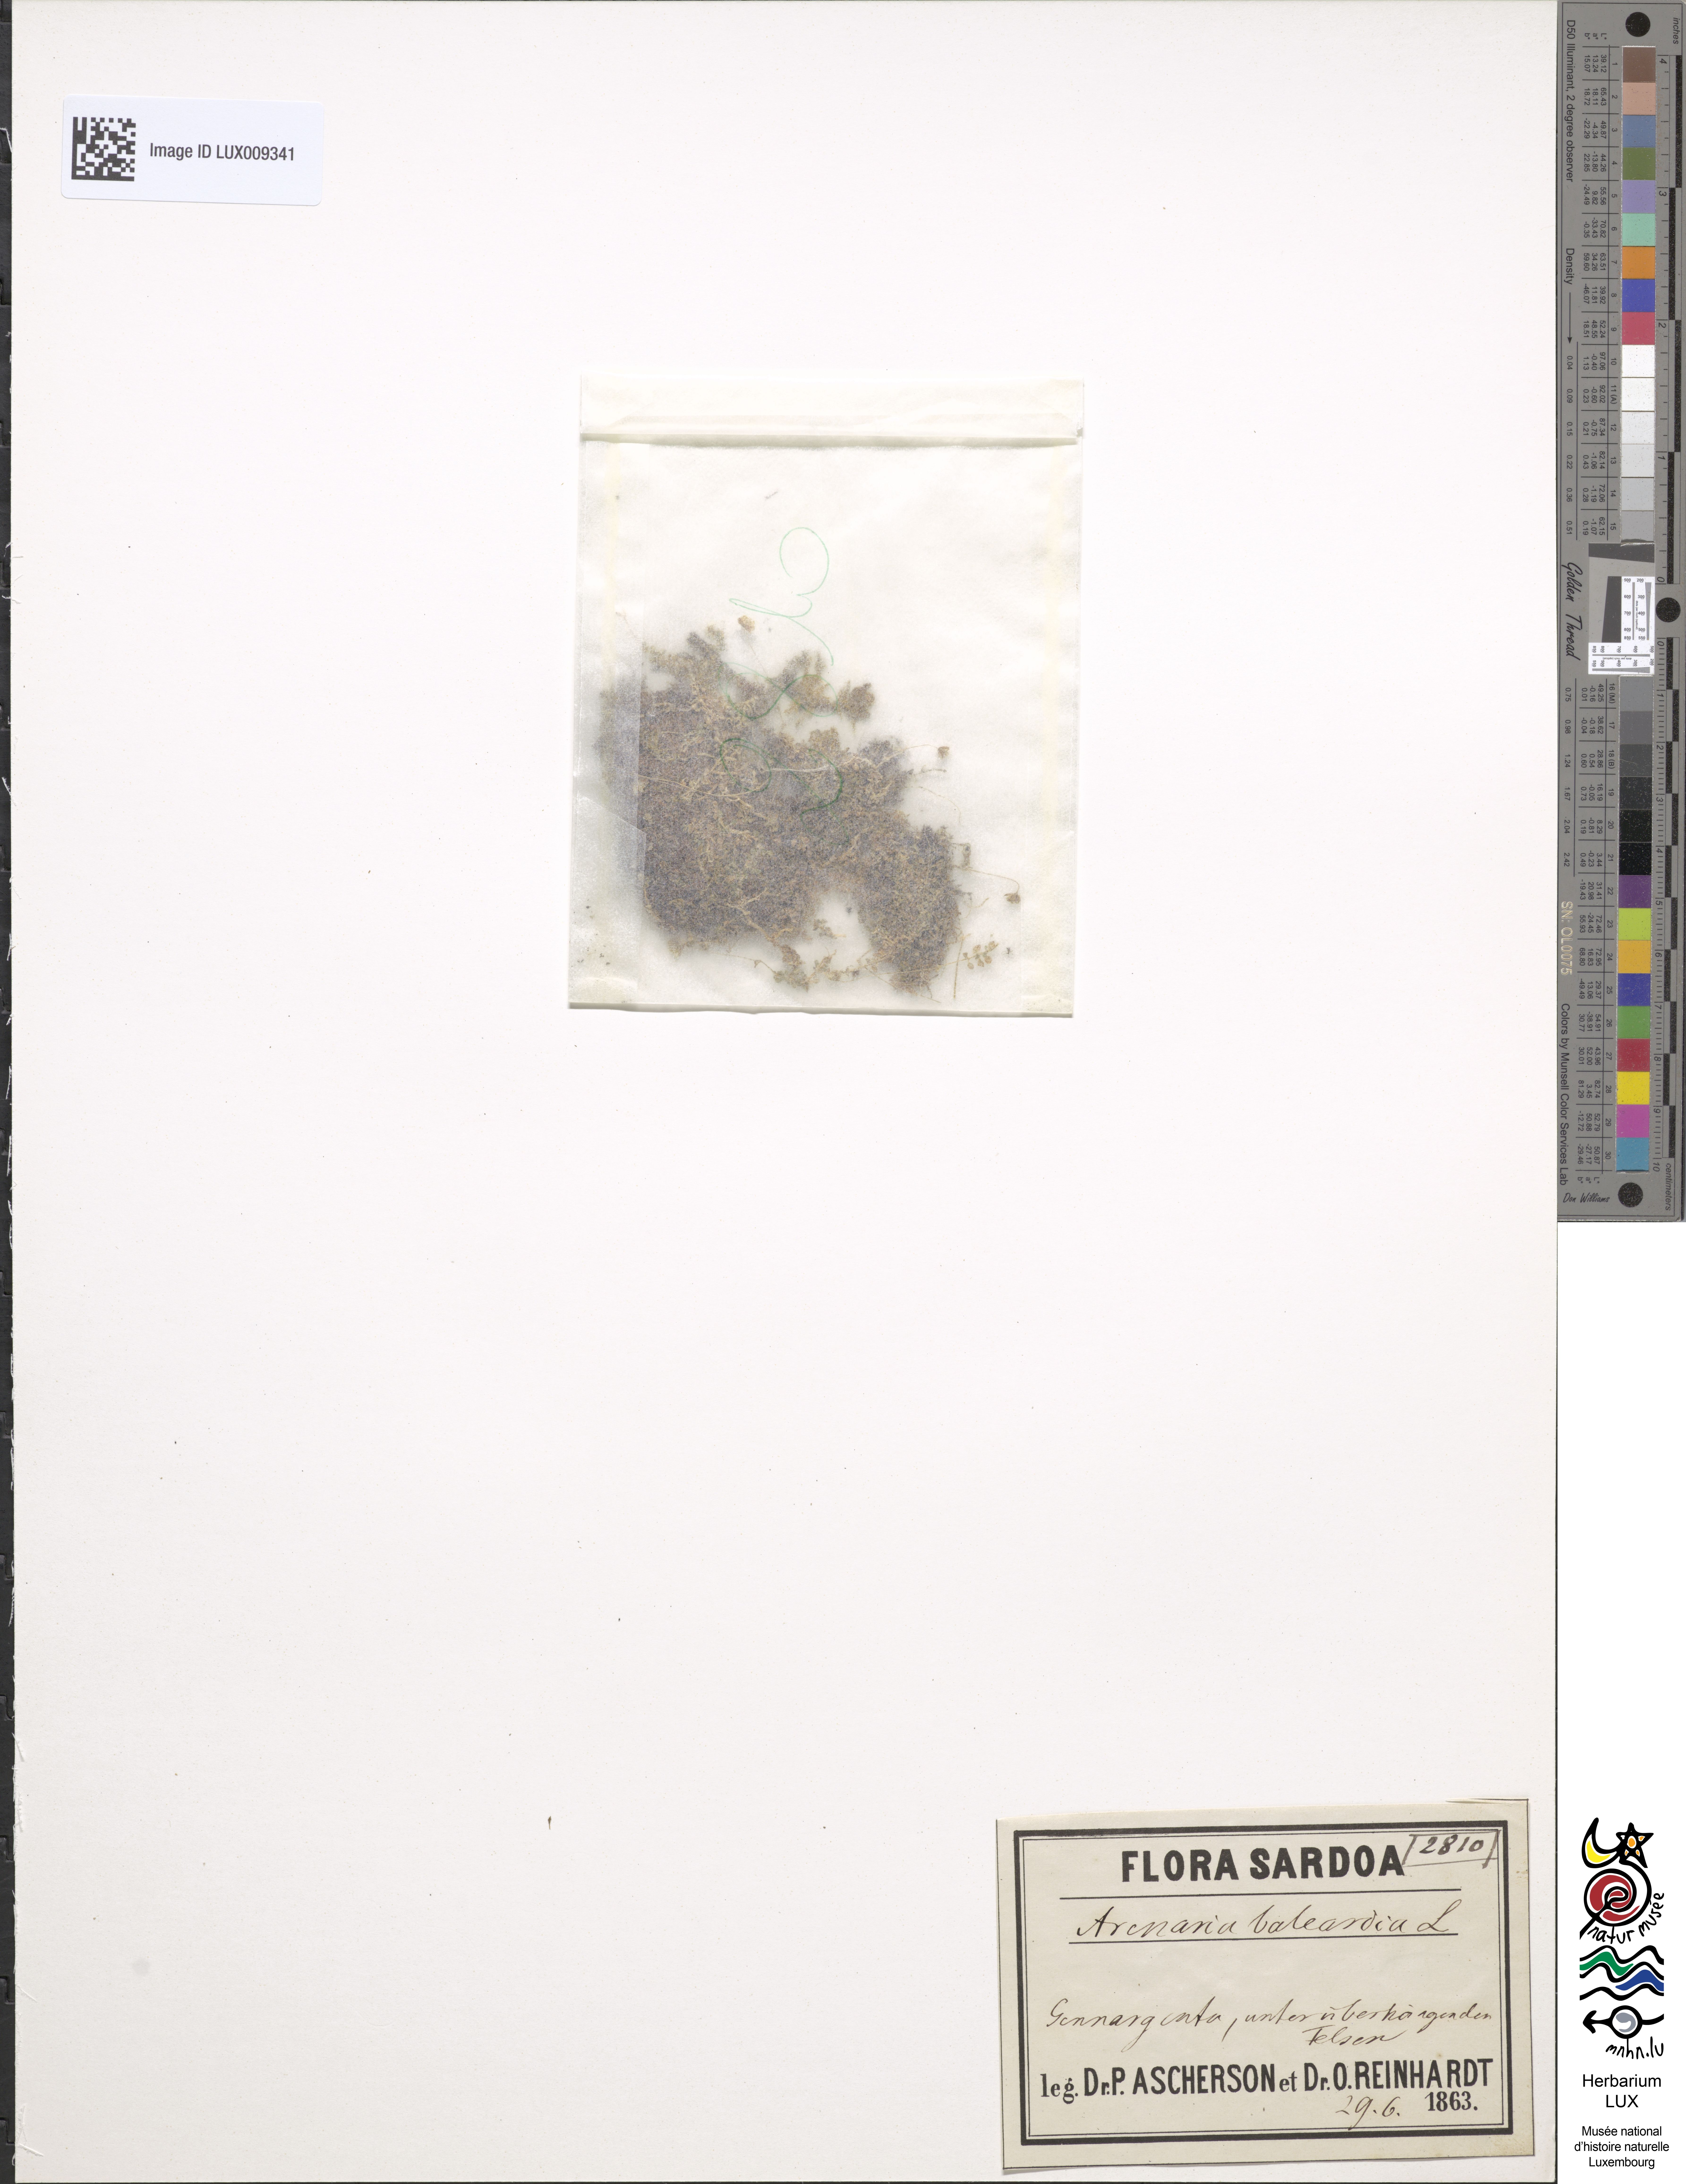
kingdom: Animalia
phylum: Chordata
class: Aves
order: Charadriiformes
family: Scolopacidae
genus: Arenaria
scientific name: Arenaria
